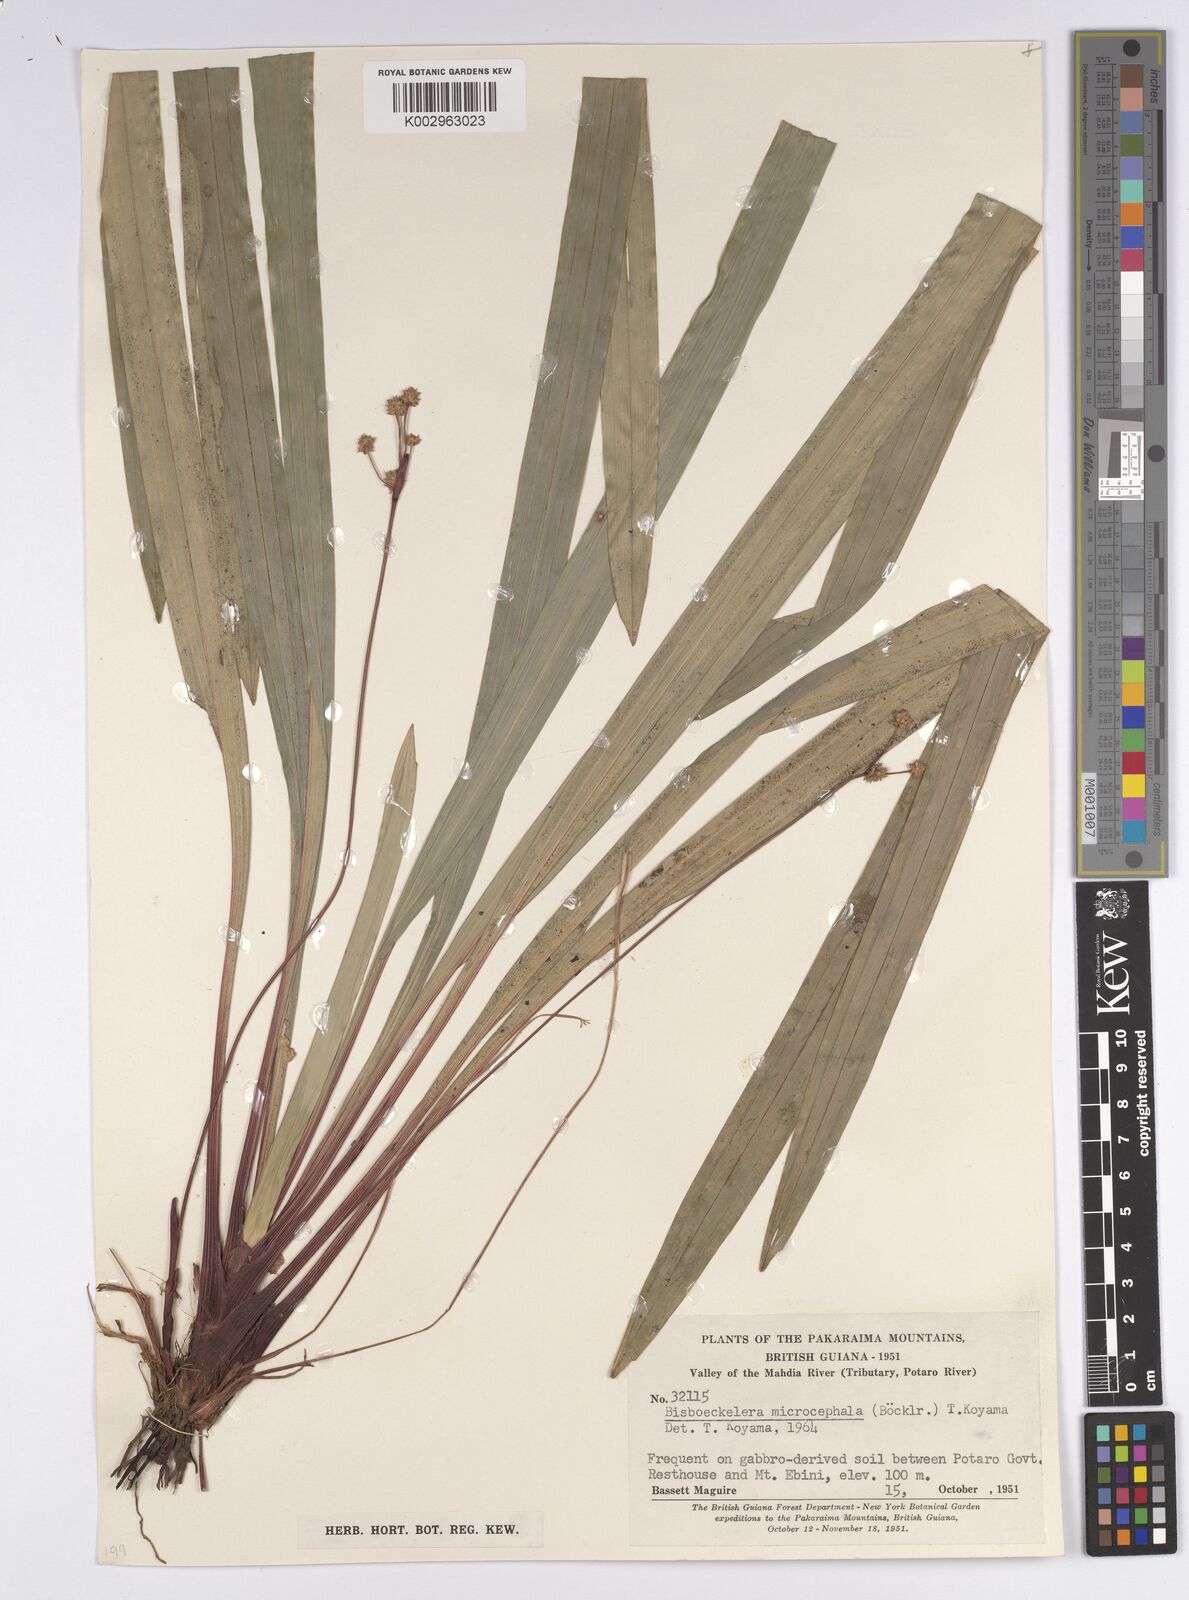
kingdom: Plantae
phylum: Tracheophyta
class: Liliopsida
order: Poales
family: Cyperaceae
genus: Bisboeckelera
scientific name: Bisboeckelera microcephala
